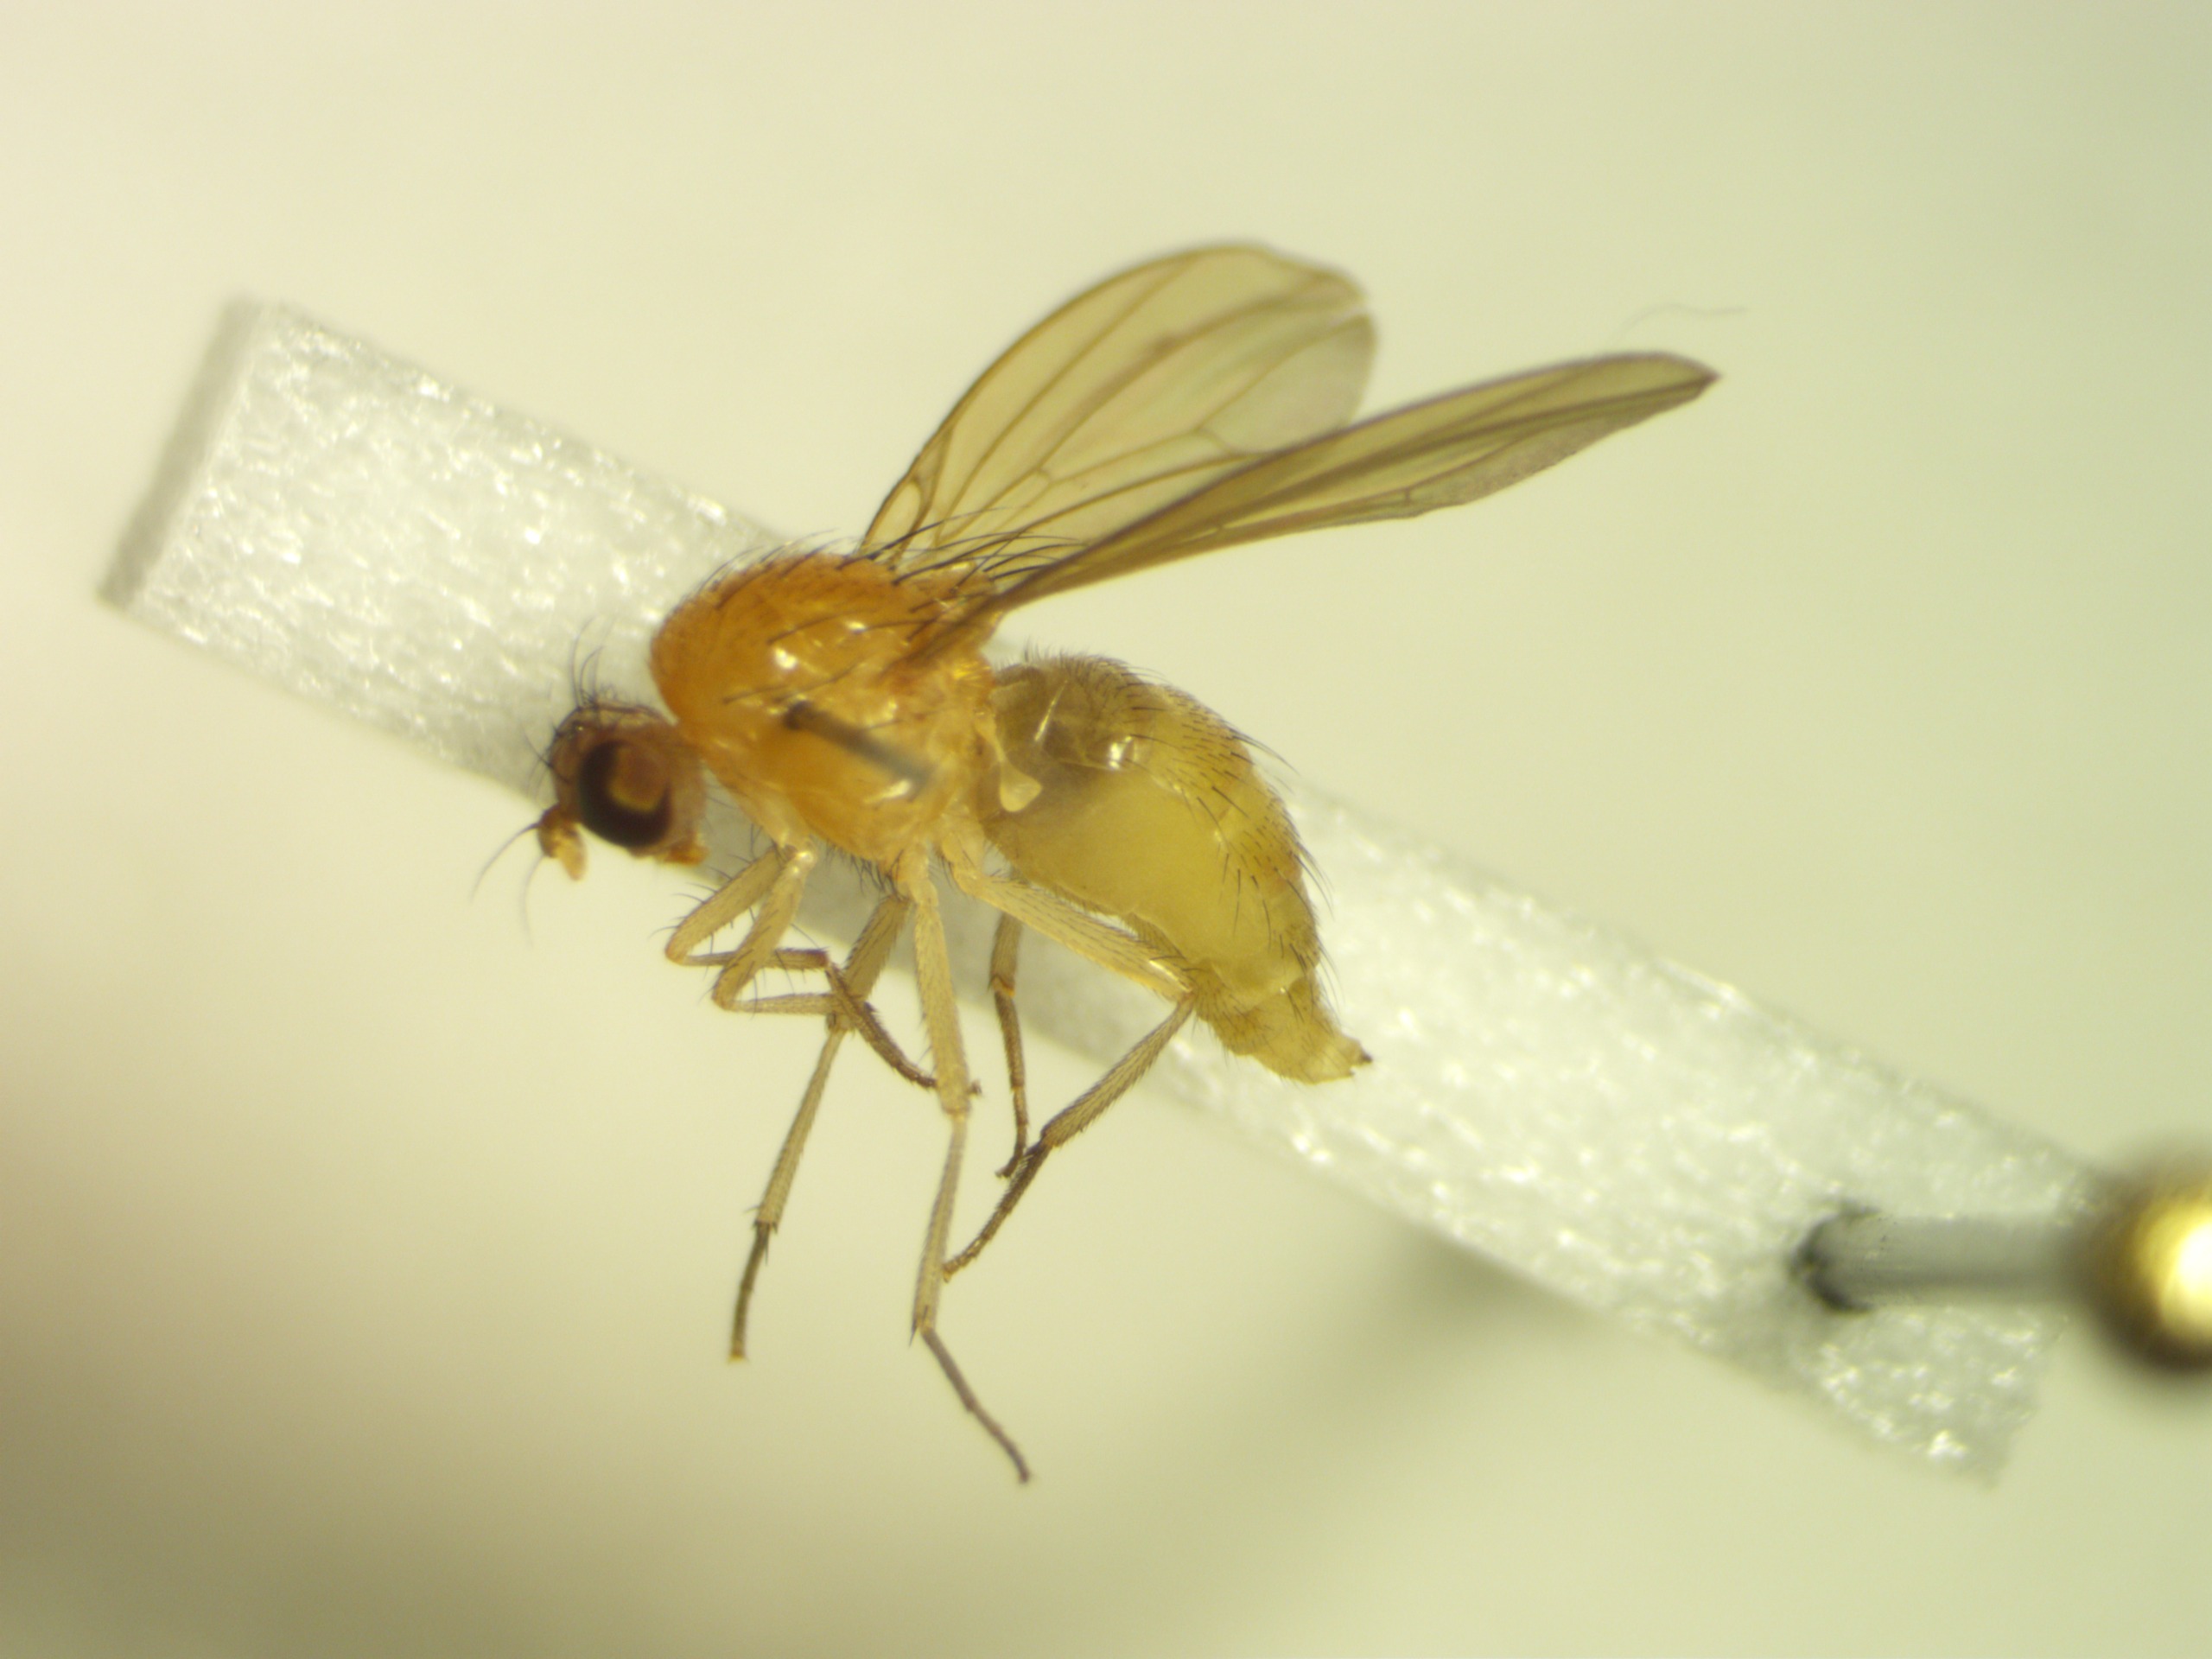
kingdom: Animalia
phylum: Arthropoda
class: Insecta
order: Diptera
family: Lauxaniidae
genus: Meiosimyza
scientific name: Meiosimyza rorida
